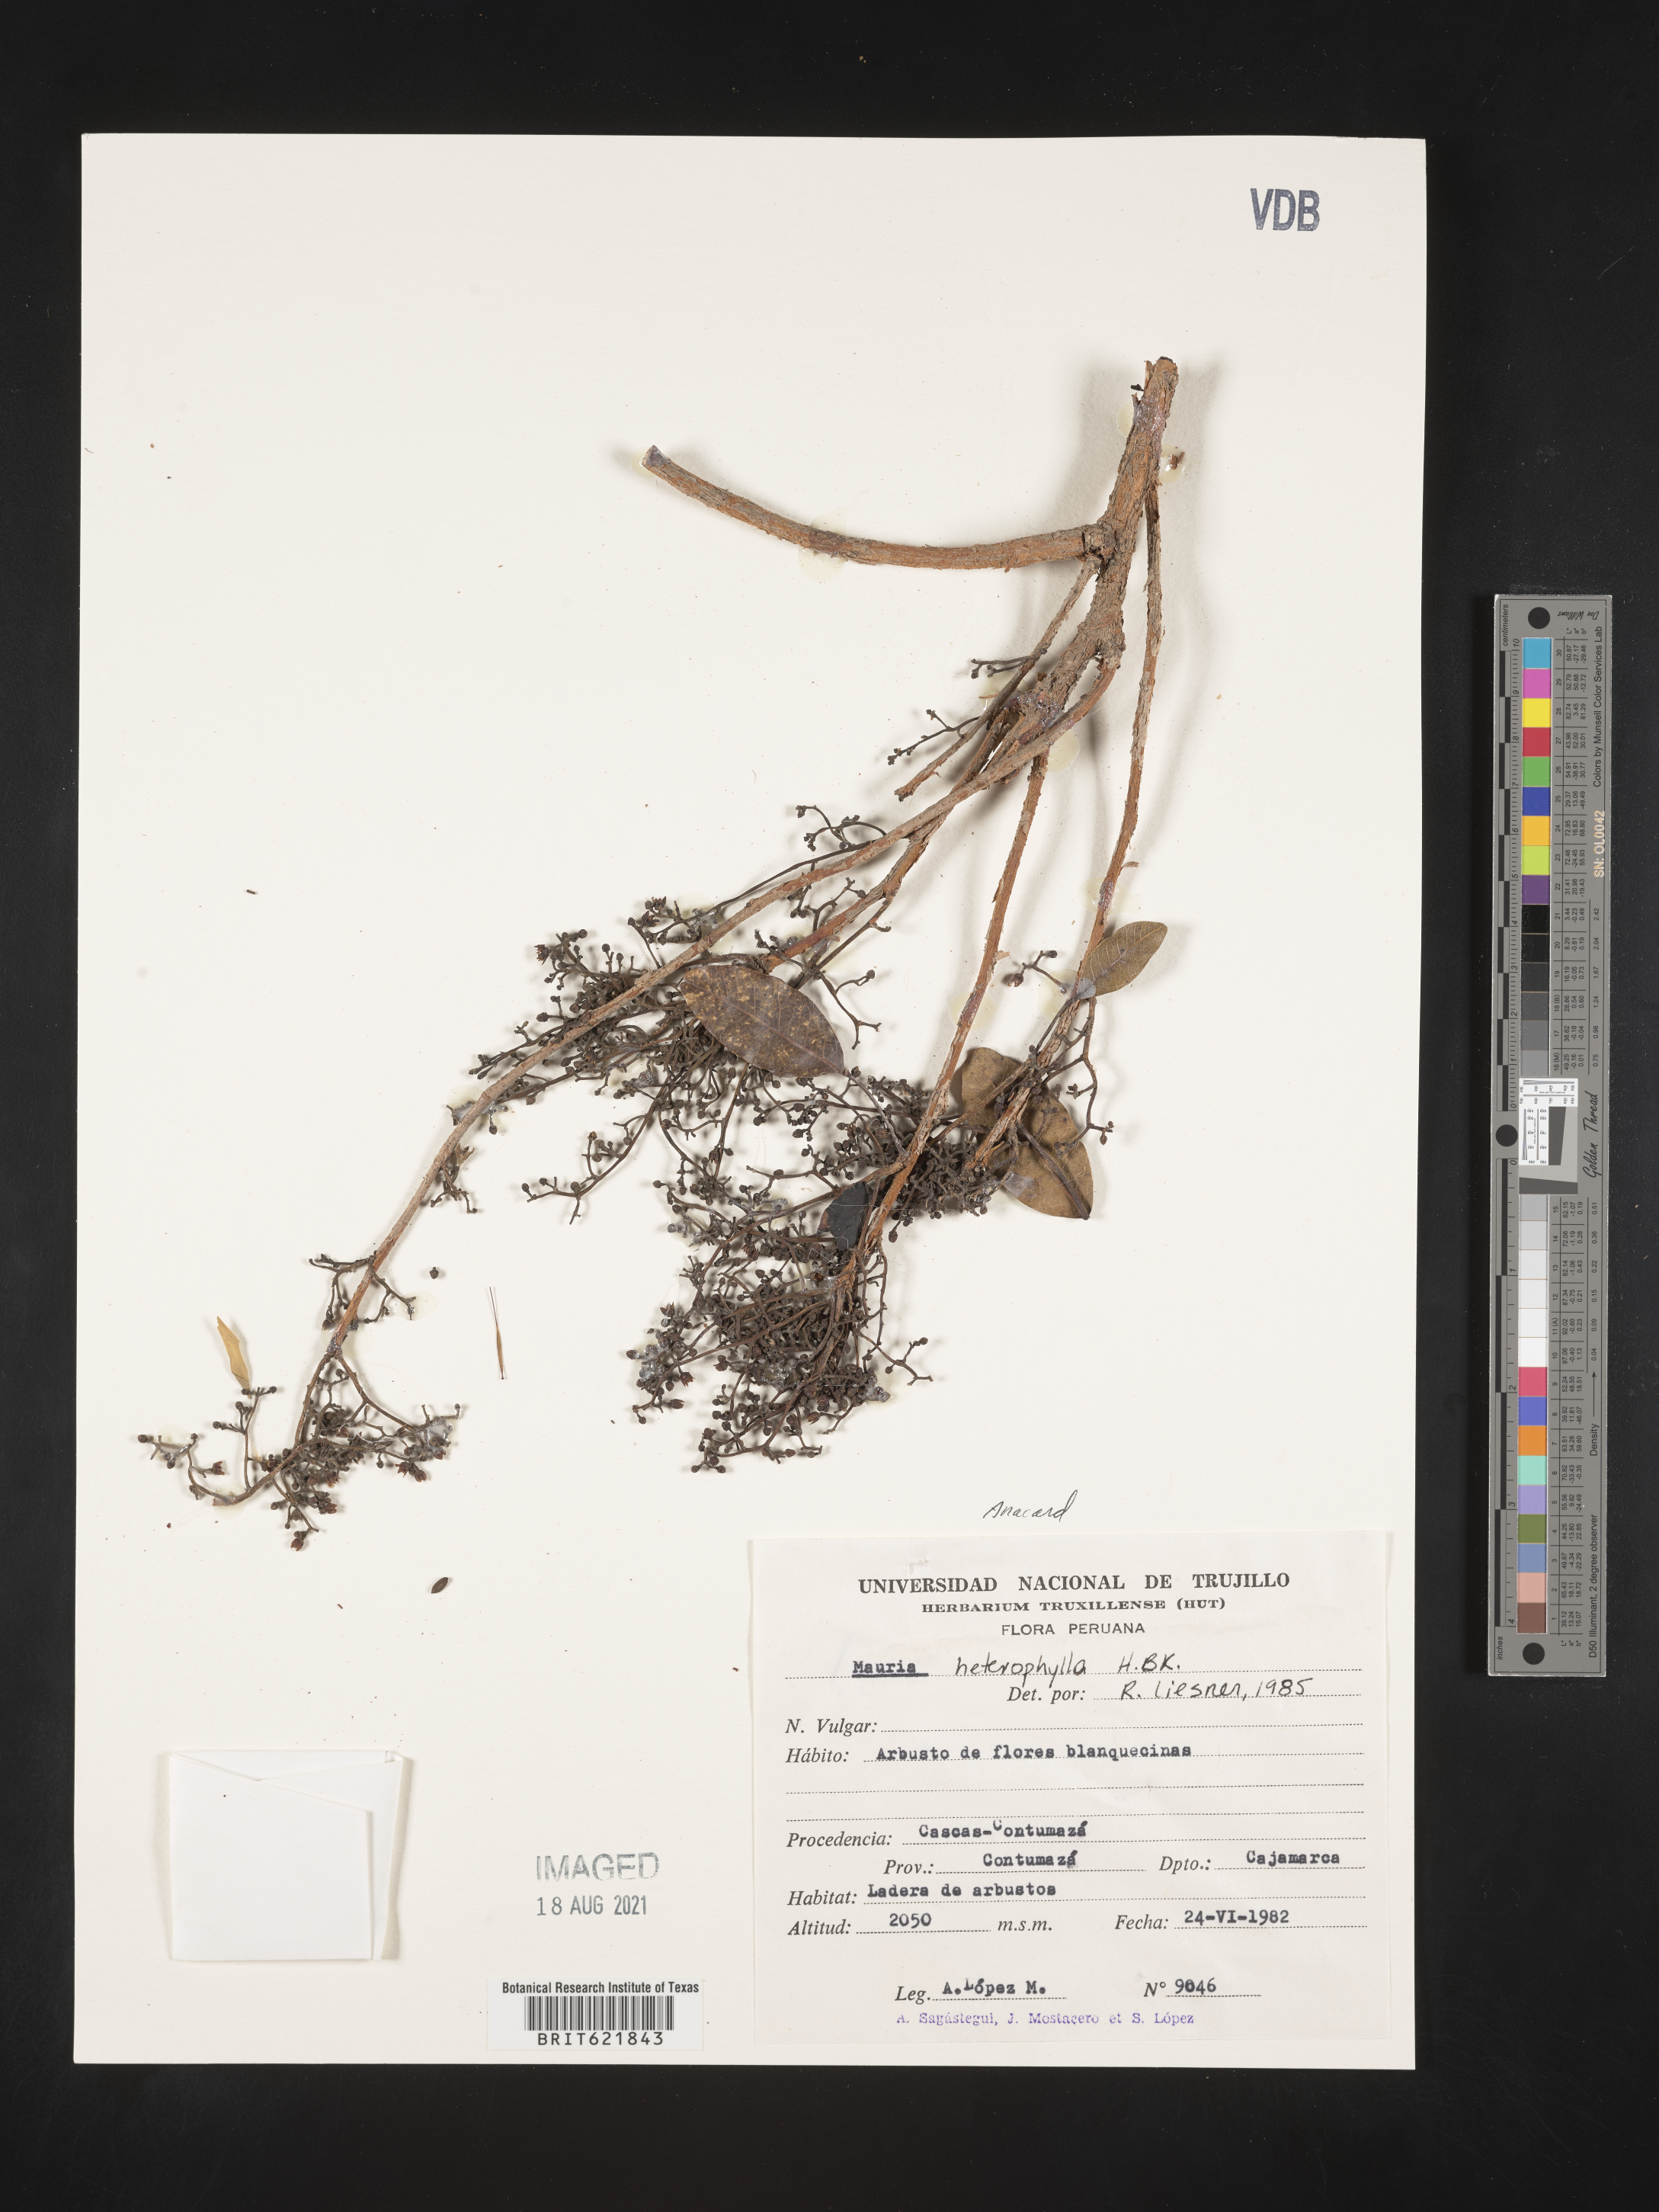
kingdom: Plantae
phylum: Tracheophyta
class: Magnoliopsida
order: Sapindales
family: Anacardiaceae
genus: Mauria
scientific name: Mauria heterophylla
